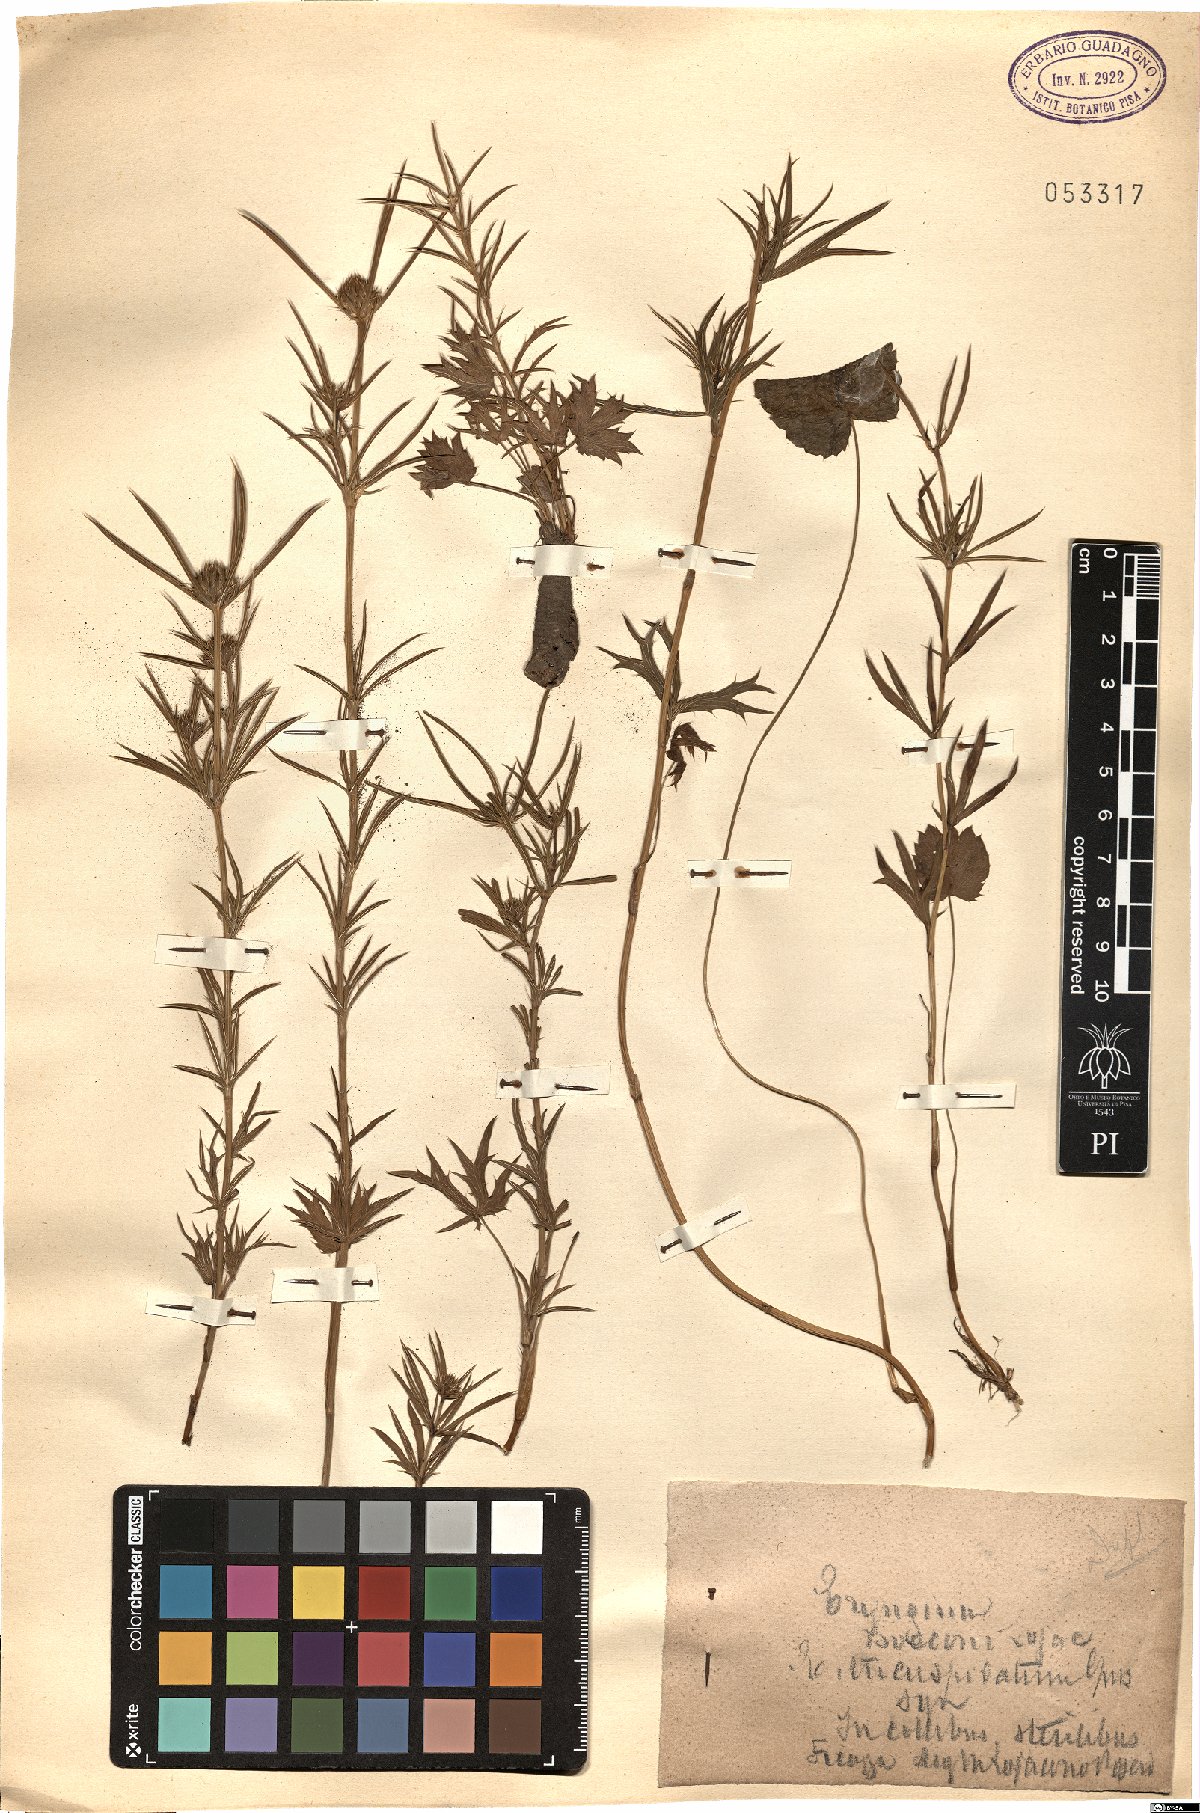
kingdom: Plantae
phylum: Tracheophyta
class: Magnoliopsida
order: Apiales
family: Apiaceae
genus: Eryngium
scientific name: Eryngium tricuspidatum
